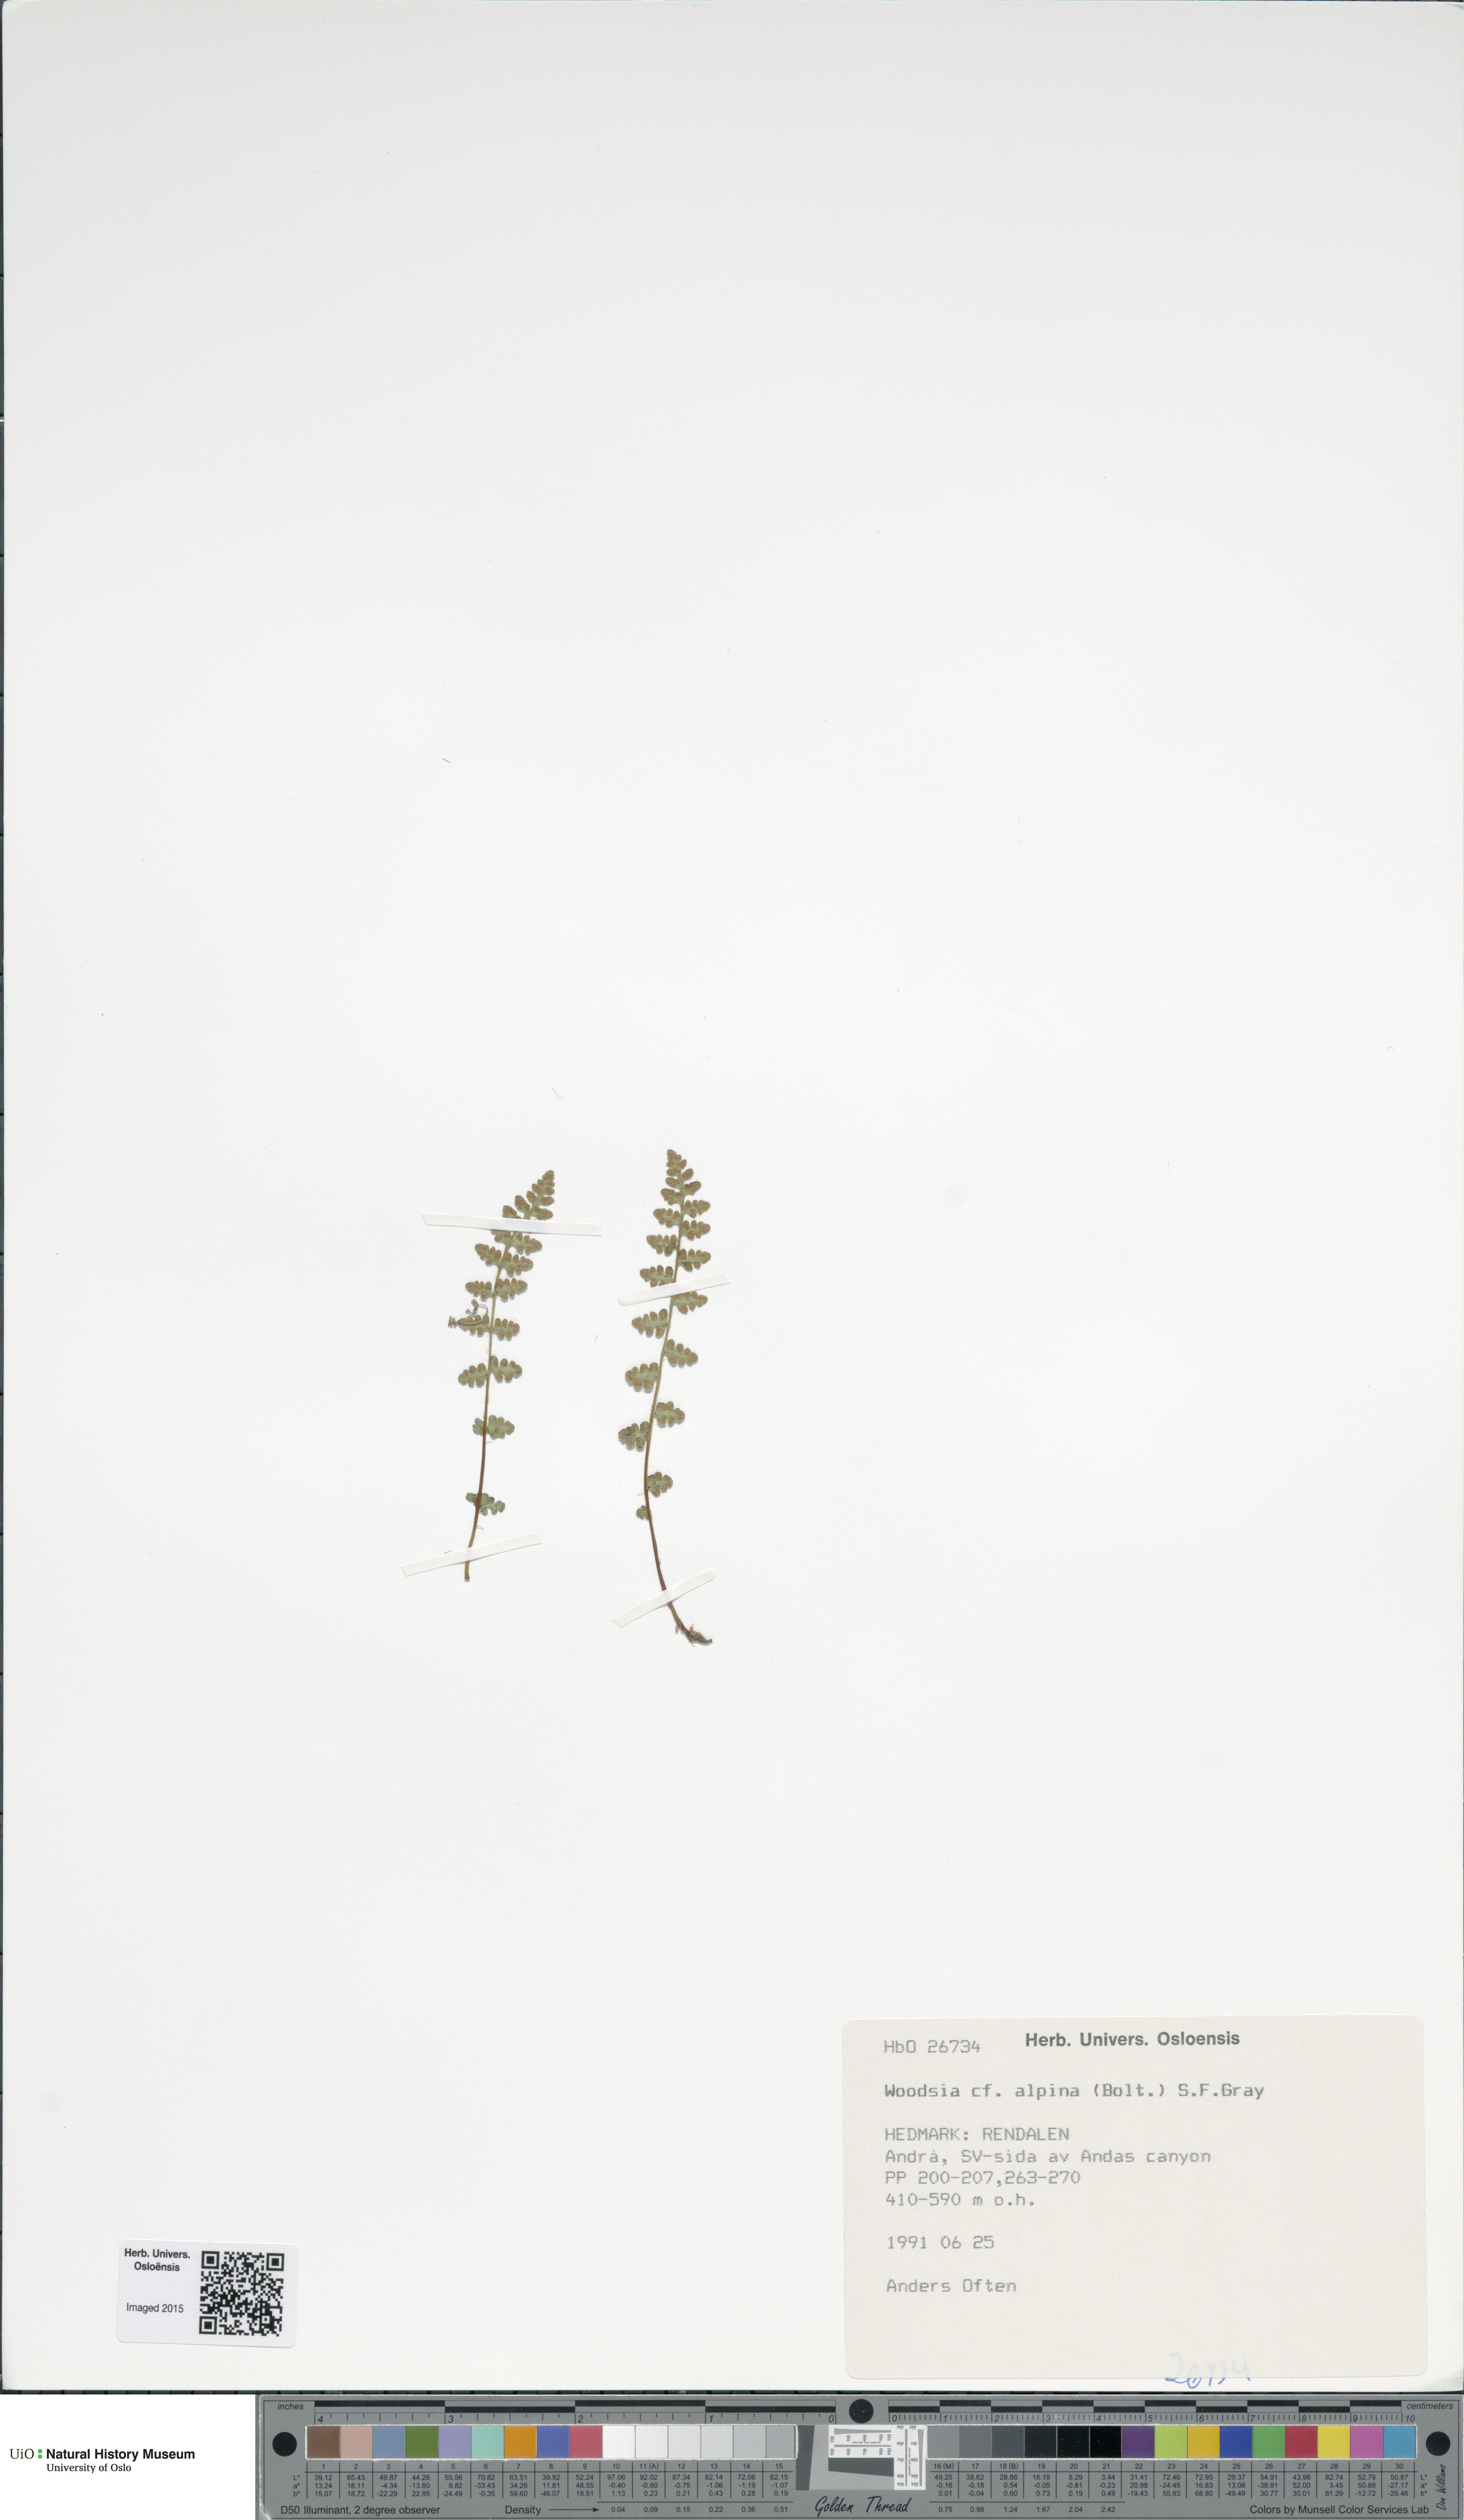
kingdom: Plantae
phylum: Tracheophyta
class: Polypodiopsida
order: Polypodiales
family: Woodsiaceae
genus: Woodsia
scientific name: Woodsia alpina
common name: Alpine woodsia
